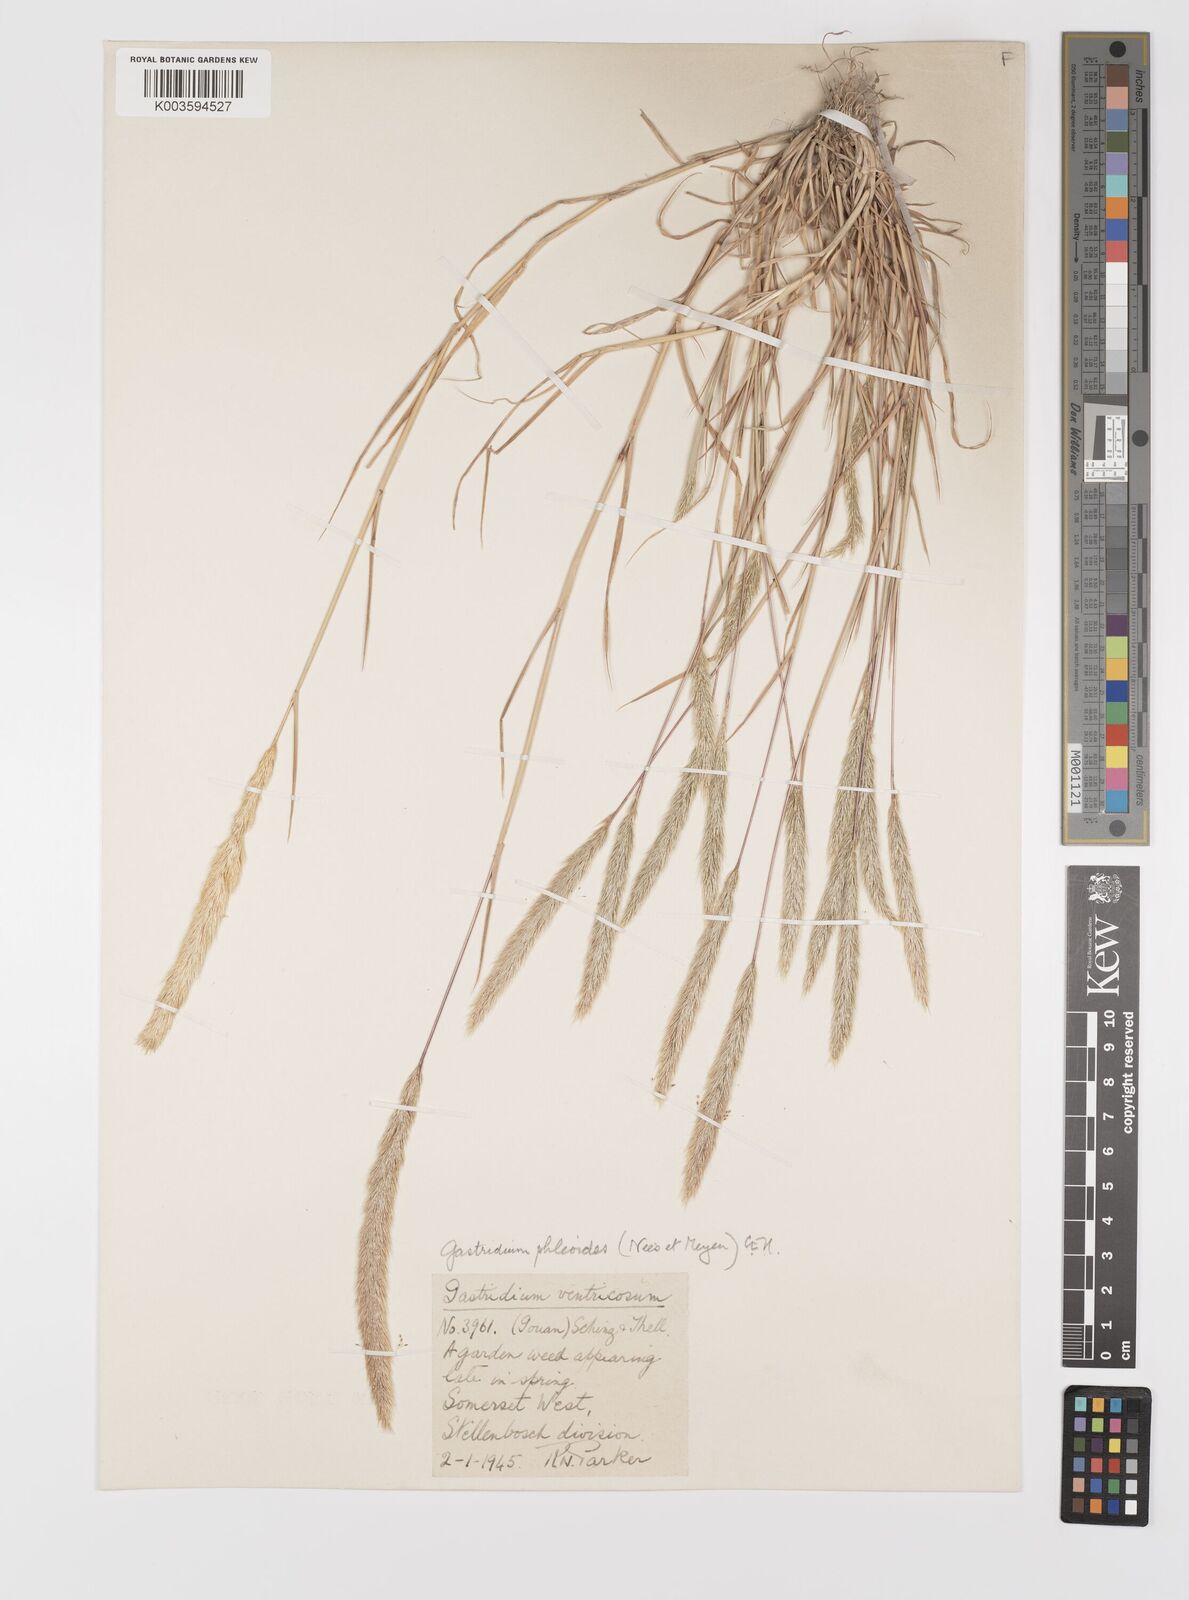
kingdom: Plantae
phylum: Tracheophyta
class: Liliopsida
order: Poales
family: Poaceae
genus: Gastridium
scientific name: Gastridium phleoides
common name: Nit grass
